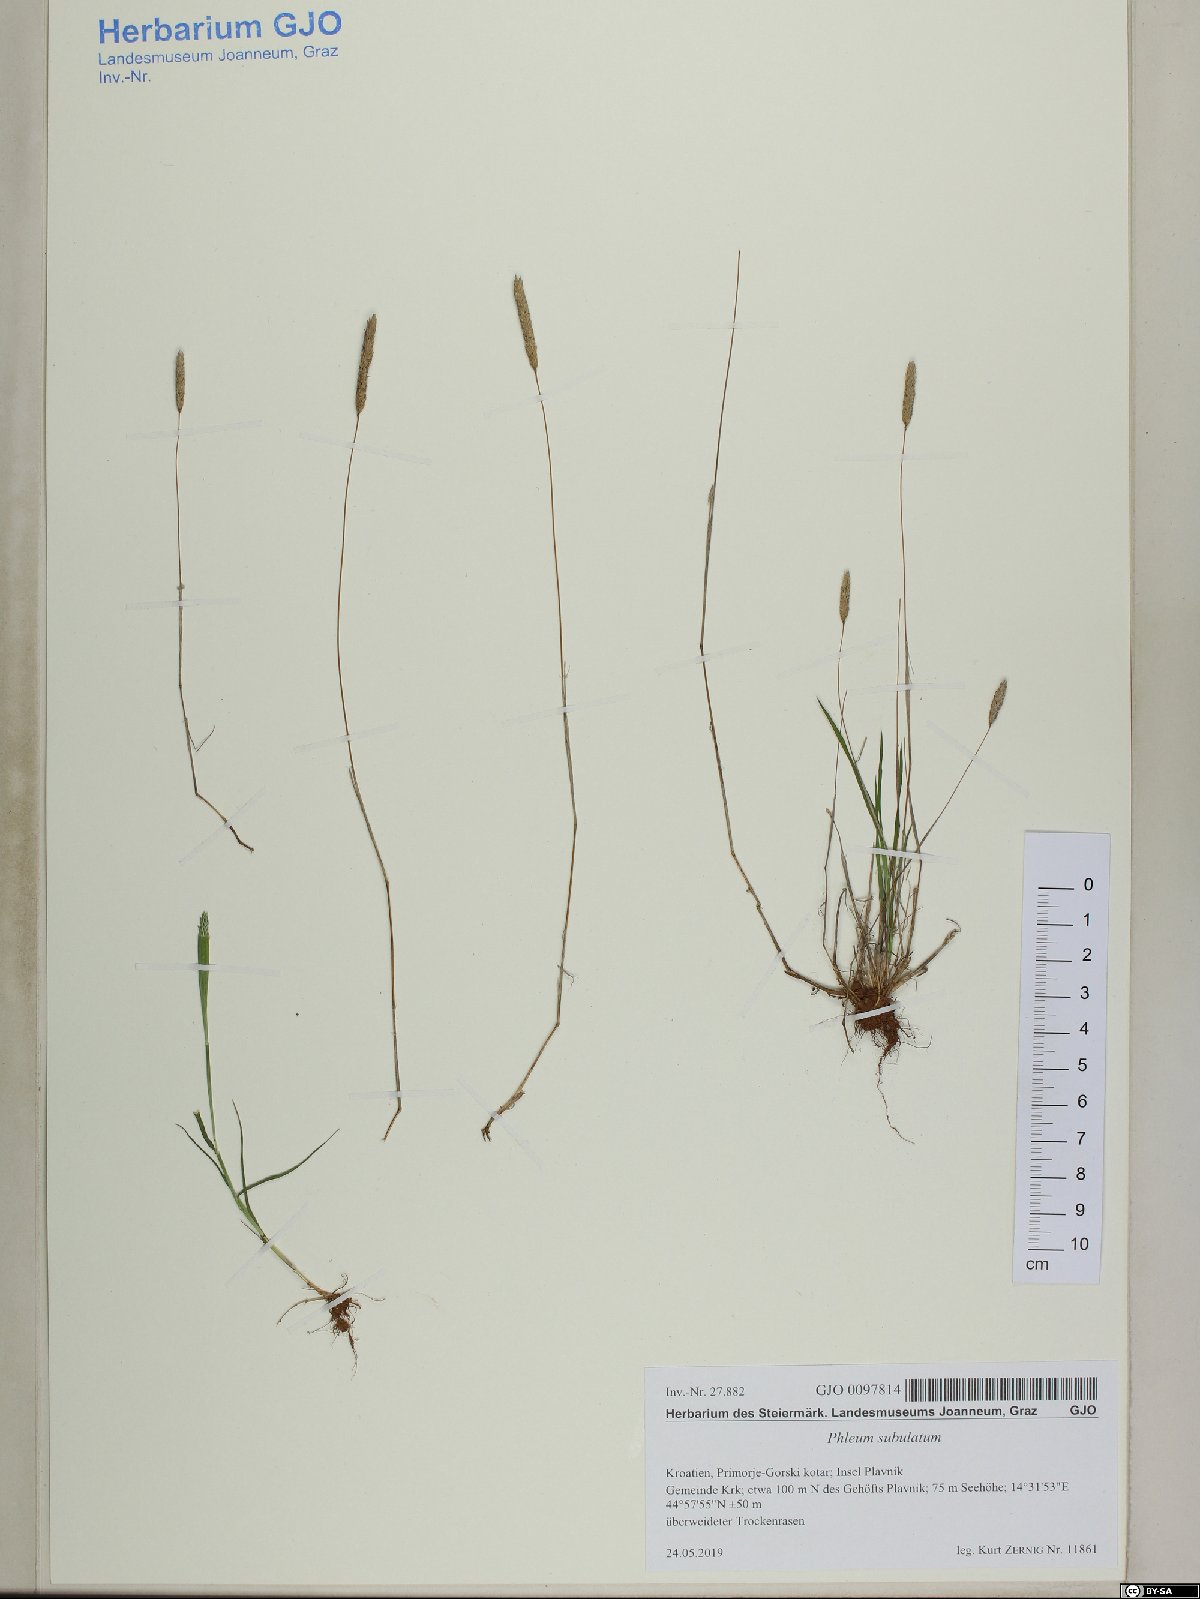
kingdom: Plantae
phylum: Tracheophyta
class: Liliopsida
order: Poales
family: Poaceae
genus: Phleum
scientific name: Phleum subulatum
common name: Italian timothy
